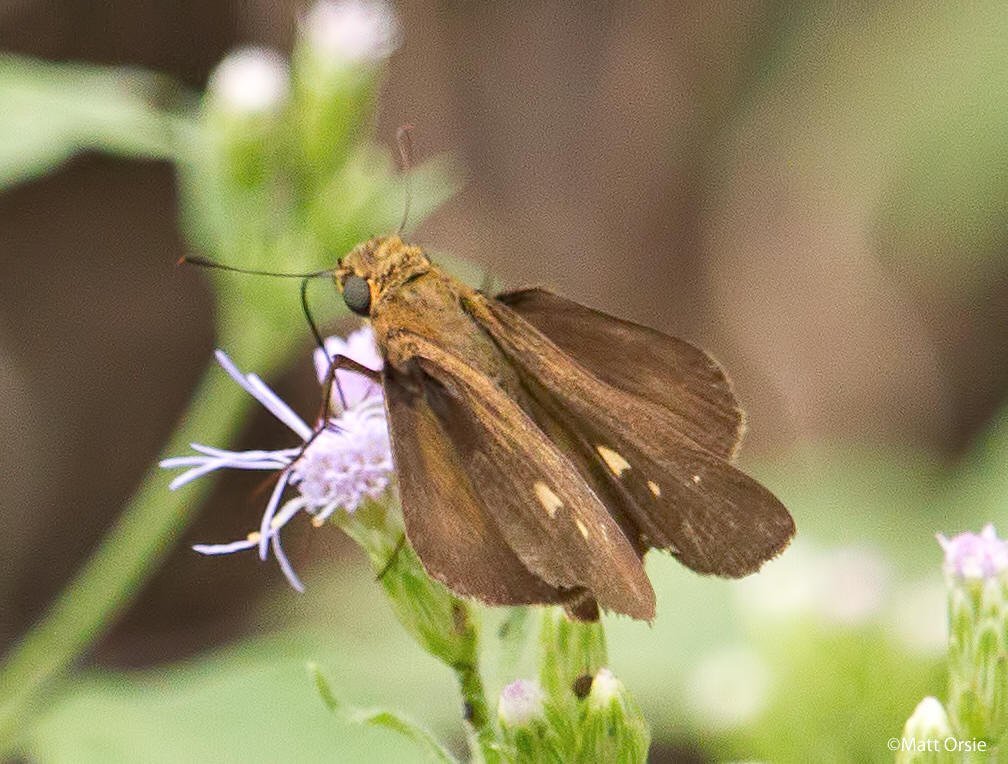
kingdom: Animalia
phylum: Arthropoda
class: Insecta
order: Lepidoptera
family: Hesperiidae
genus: Panoquina
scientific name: Panoquina ocola
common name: Ocola Skipper
